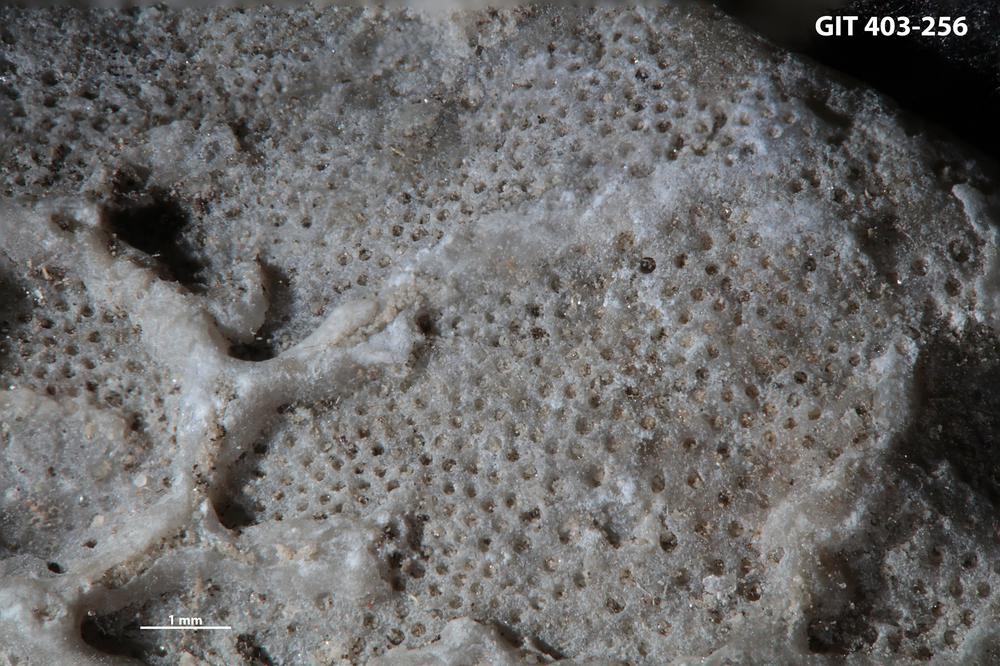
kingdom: Animalia
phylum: Bryozoa
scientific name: Bryozoa
